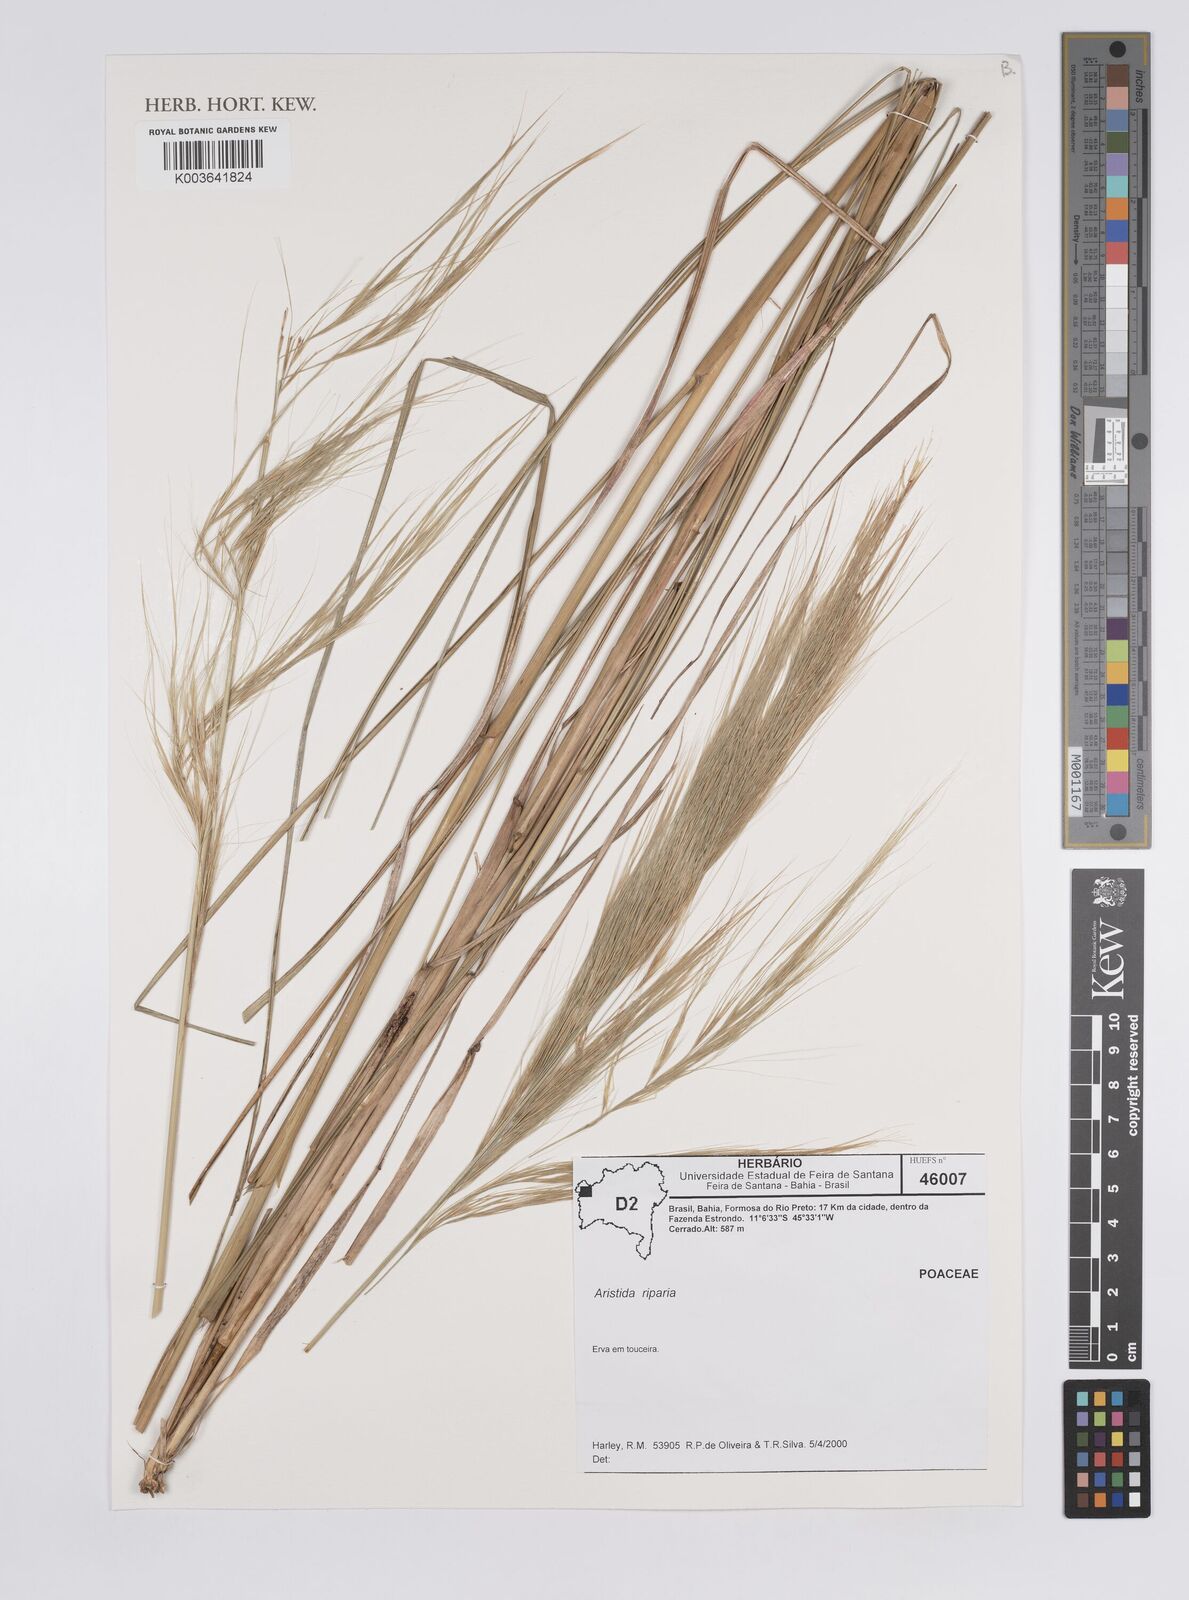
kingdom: Plantae
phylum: Tracheophyta
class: Liliopsida
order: Poales
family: Poaceae
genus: Aristida
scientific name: Aristida riparia
